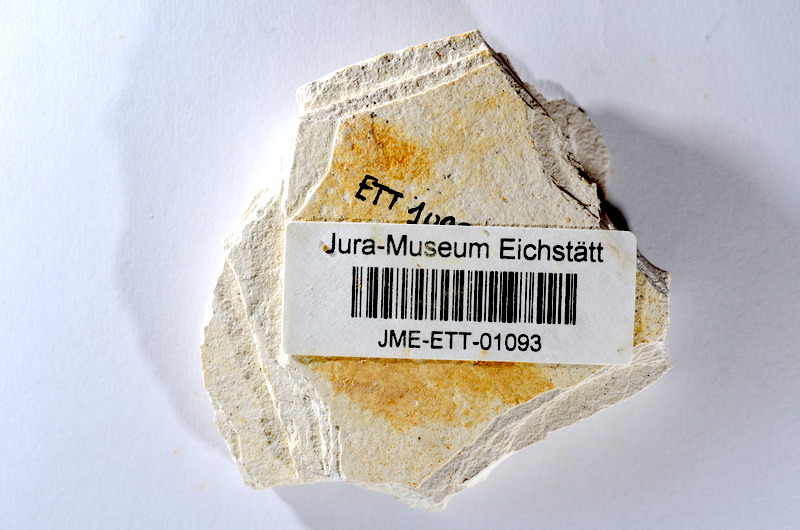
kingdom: Animalia
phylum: Chordata
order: Salmoniformes
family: Orthogonikleithridae
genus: Orthogonikleithrus
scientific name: Orthogonikleithrus hoelli
